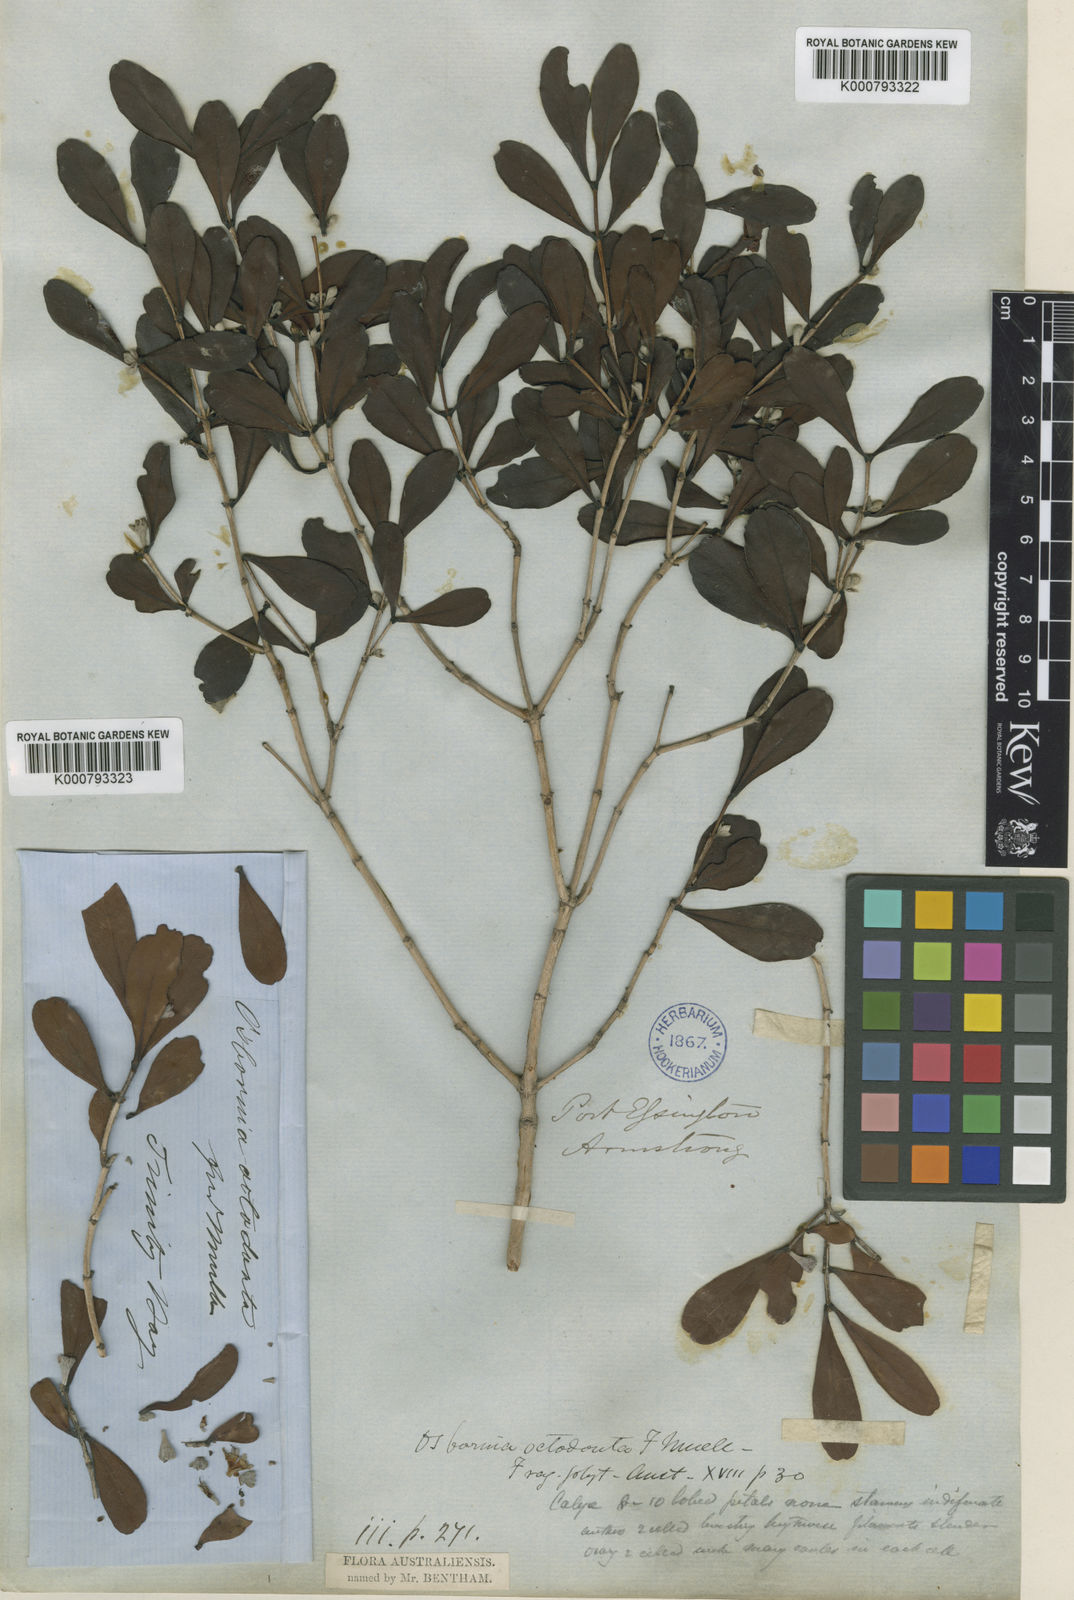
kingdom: Plantae
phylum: Tracheophyta
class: Magnoliopsida
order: Myrtales
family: Myrtaceae
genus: Osbornia
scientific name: Osbornia octodonta
